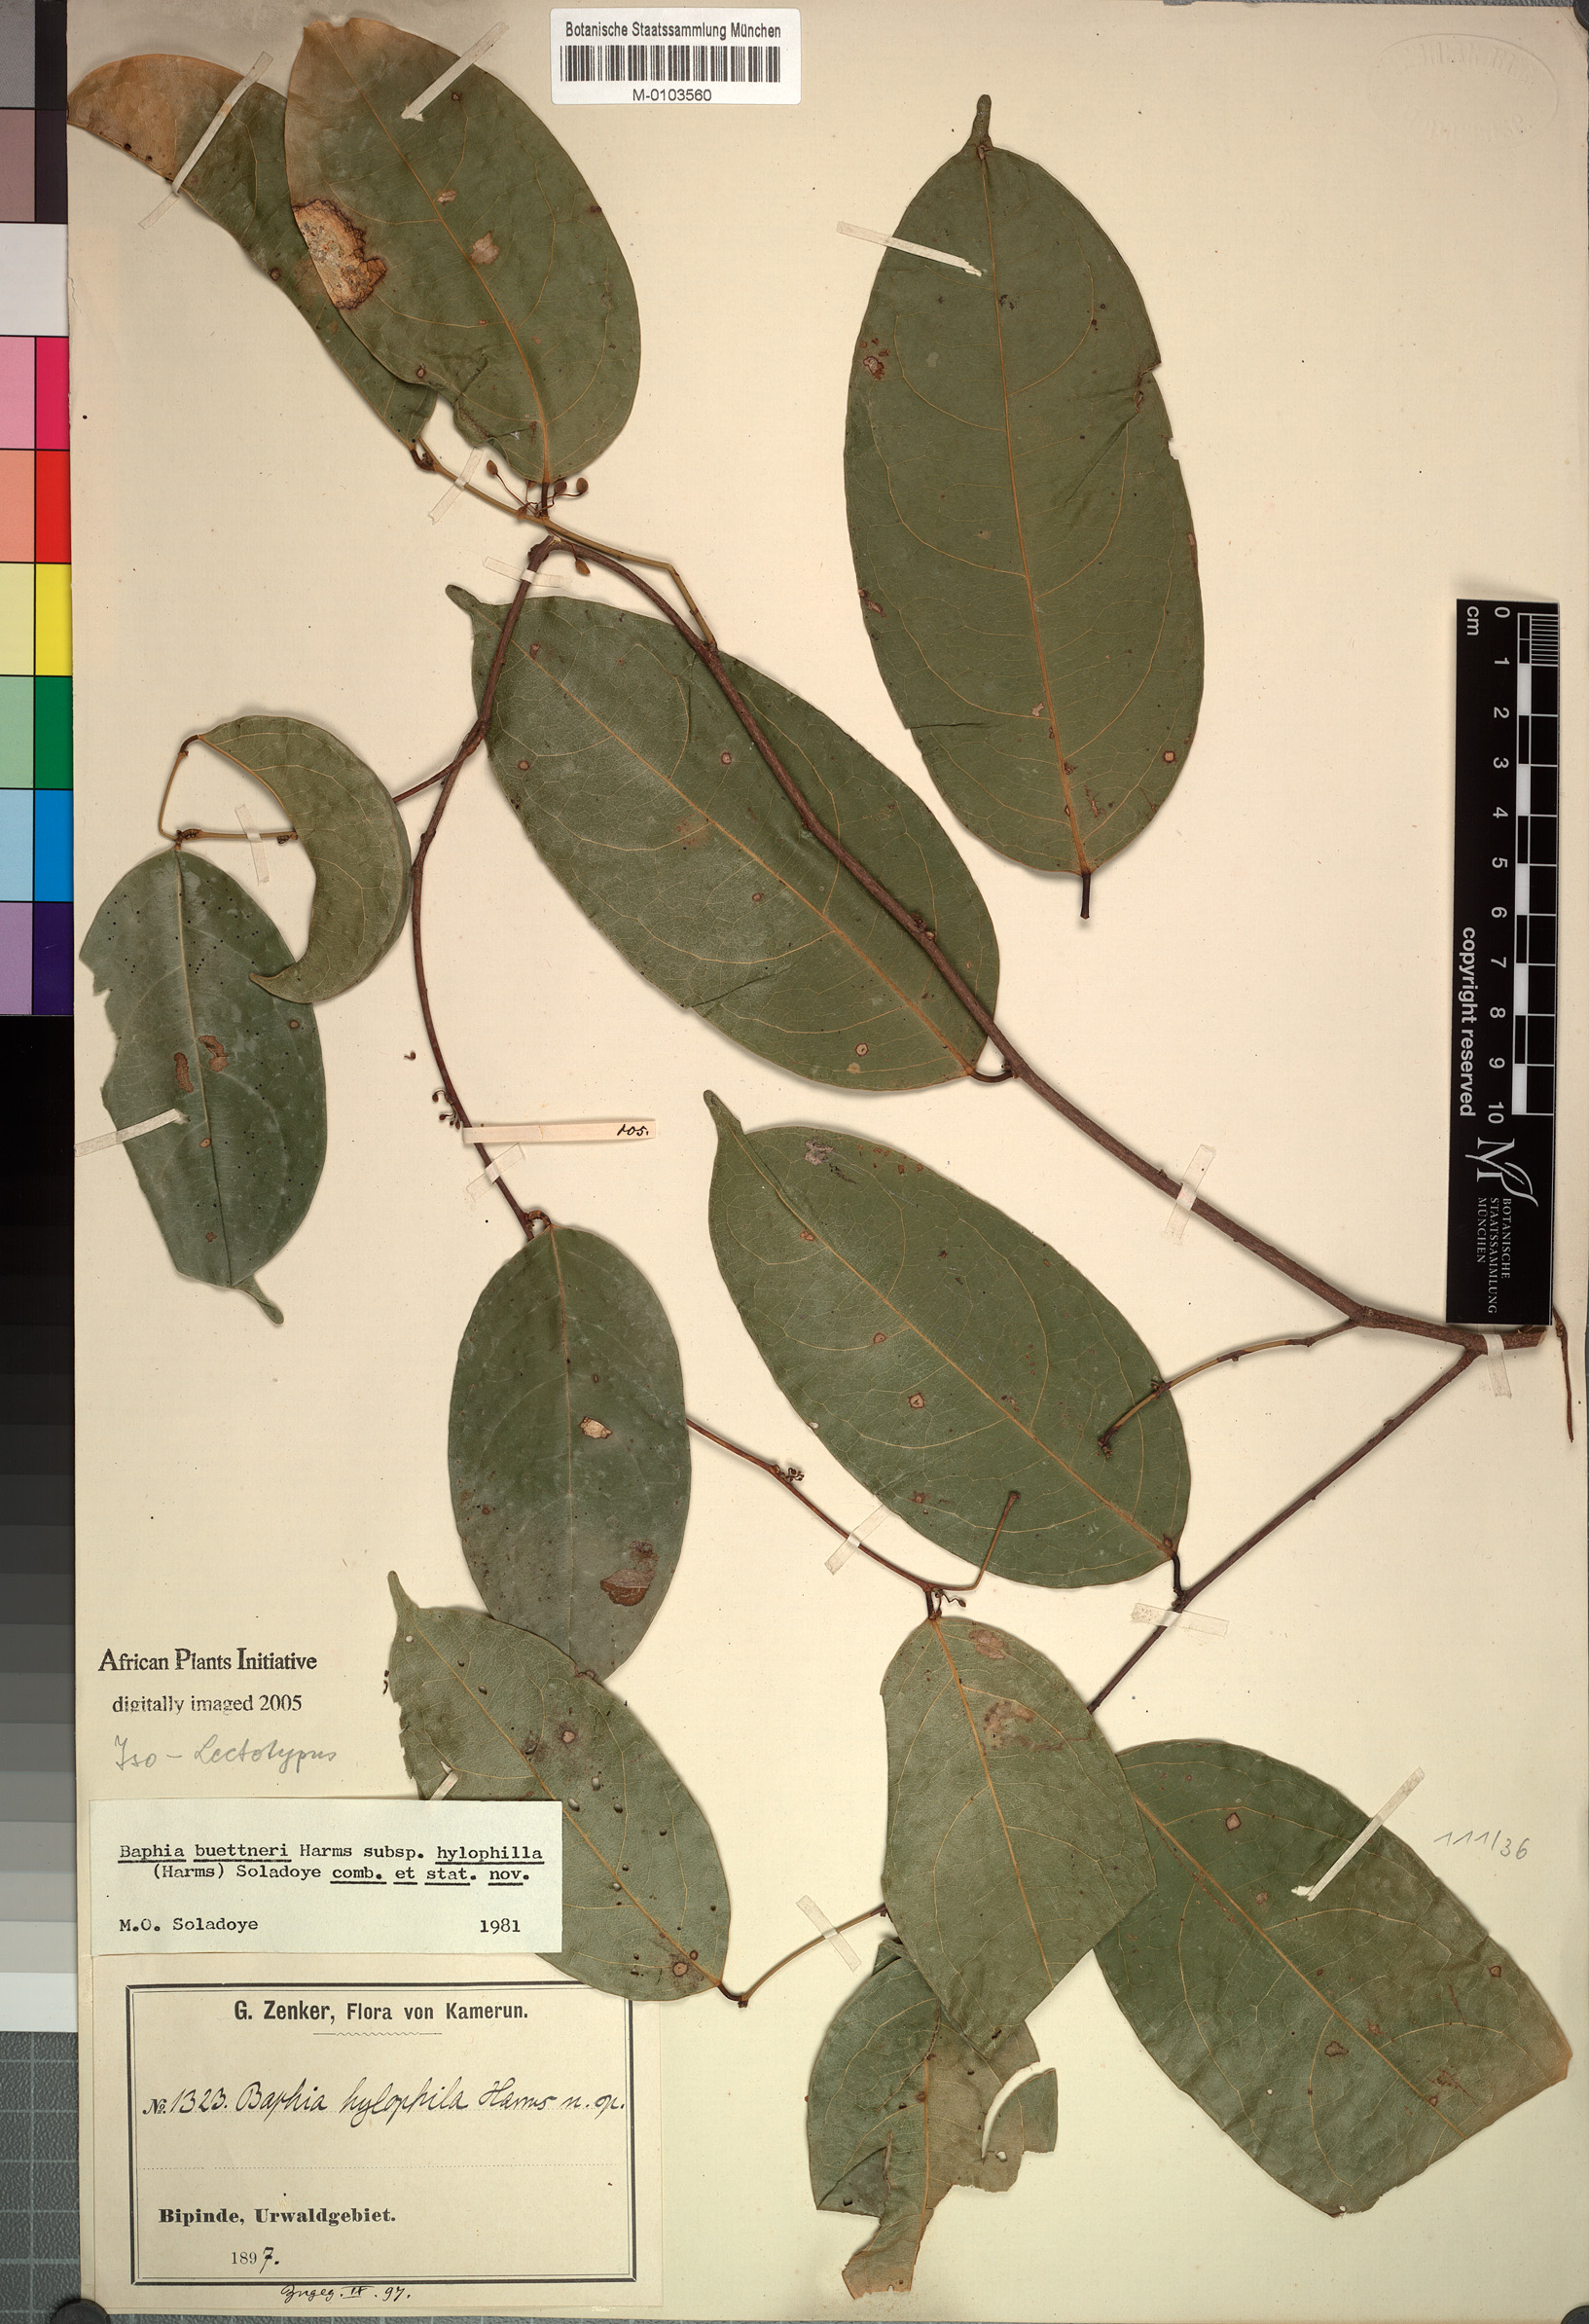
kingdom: Plantae
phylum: Tracheophyta
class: Magnoliopsida
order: Fabales
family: Fabaceae
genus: Baphia
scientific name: Baphia buettneri
